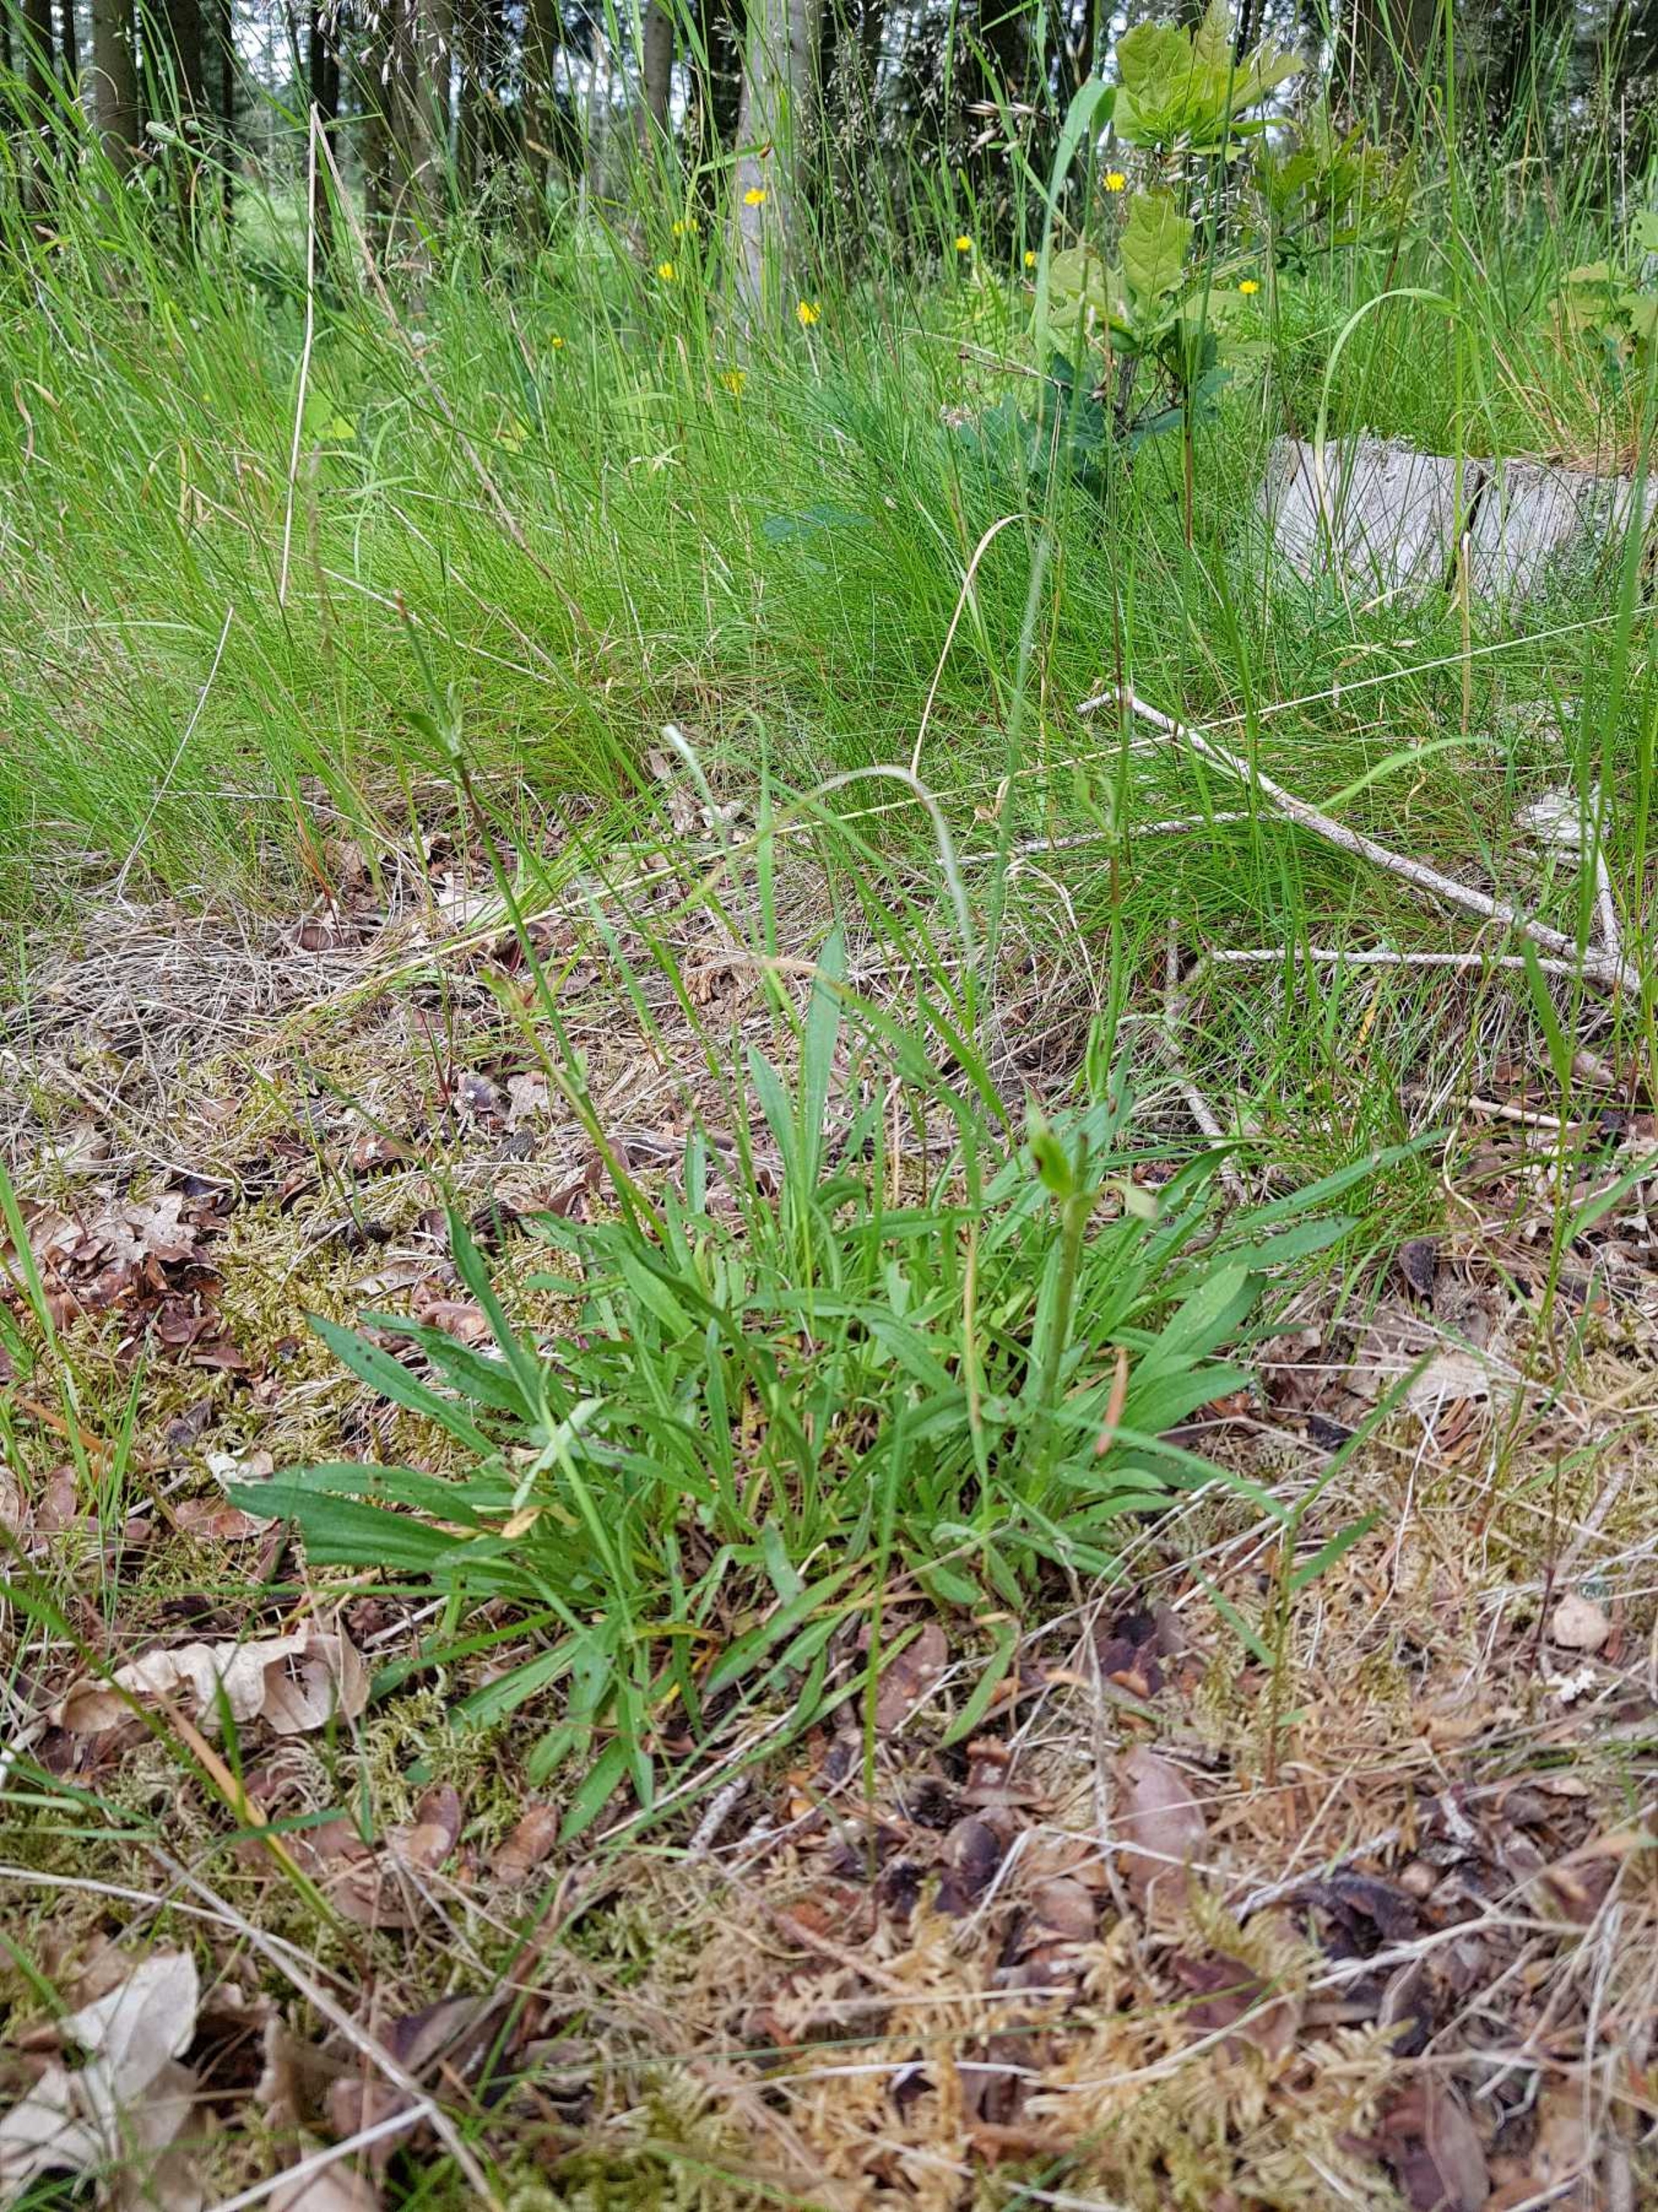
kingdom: Plantae
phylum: Tracheophyta
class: Magnoliopsida
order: Caryophyllales
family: Caryophyllaceae
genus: Viscaria
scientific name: Viscaria vulgaris
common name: Tjærenellike
